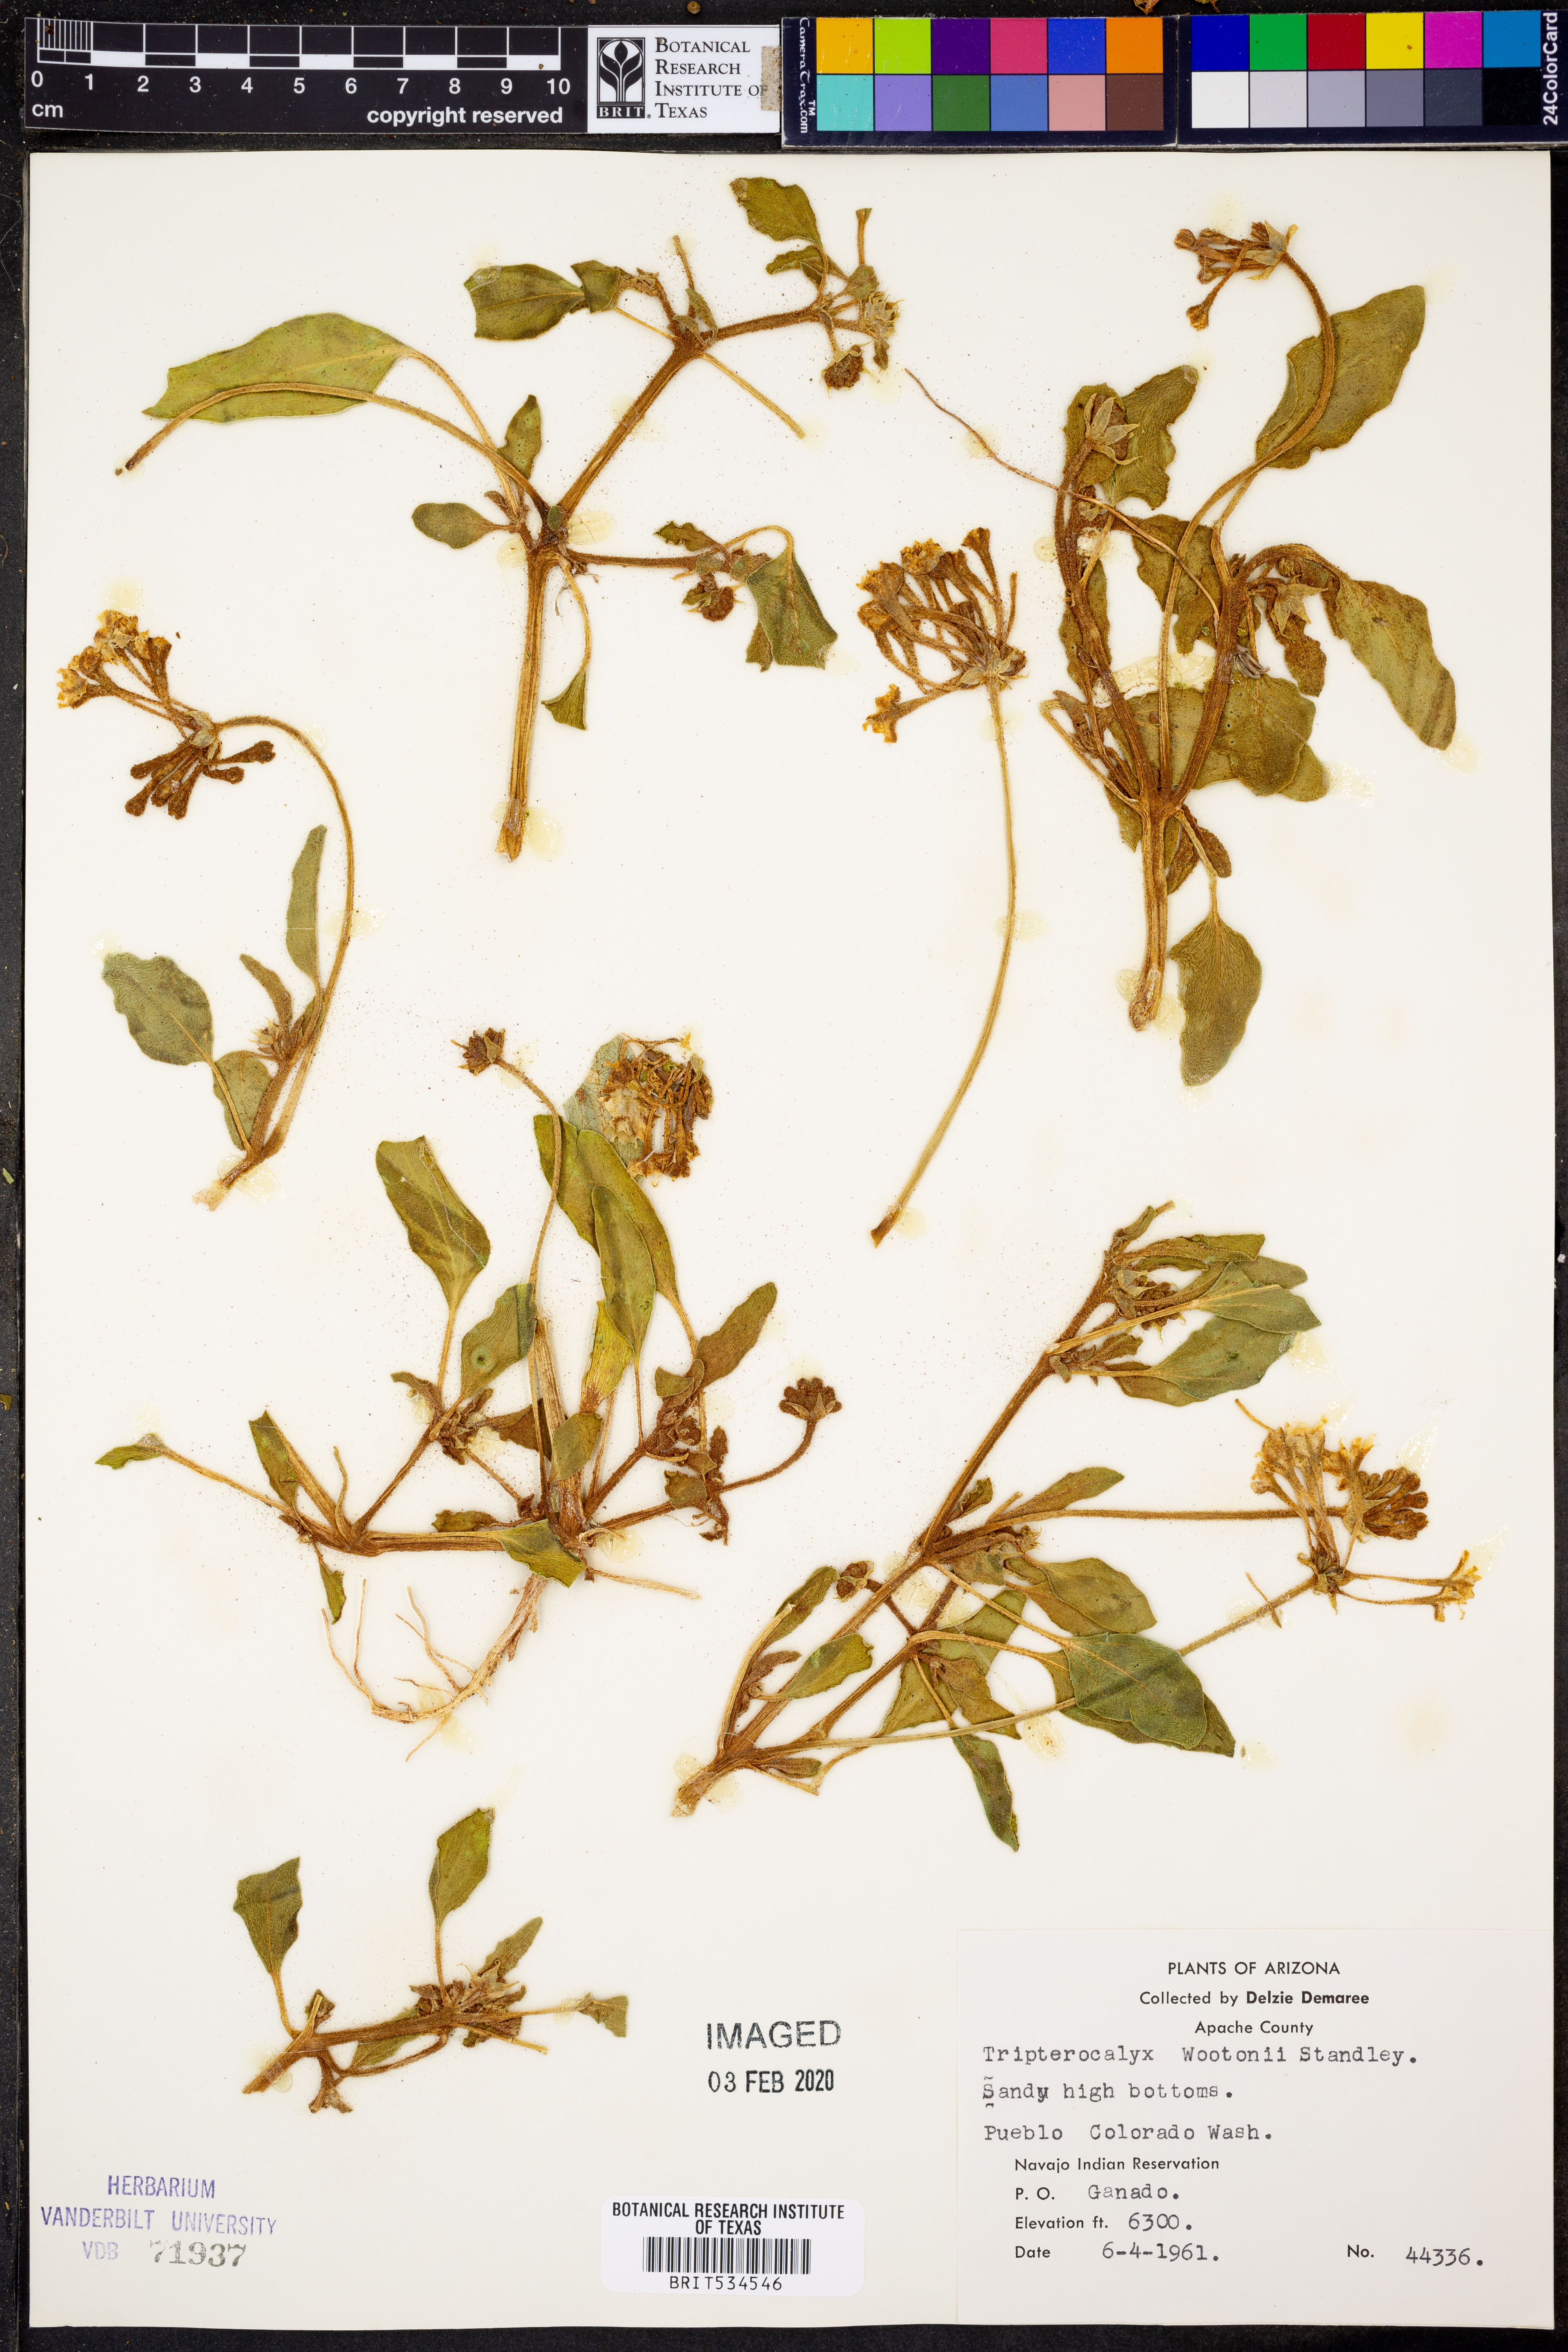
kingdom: Plantae
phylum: Tracheophyta
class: Magnoliopsida
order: Caryophyllales
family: Nyctaginaceae
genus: Tripterocalyx
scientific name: Tripterocalyx wootonii
